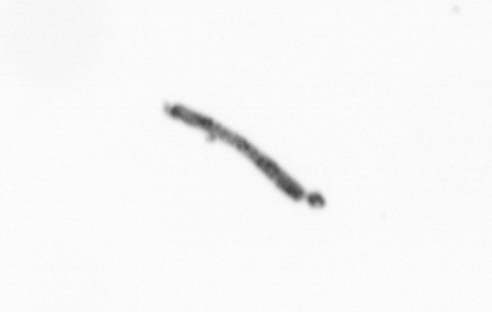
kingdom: Chromista
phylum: Ochrophyta
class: Bacillariophyceae
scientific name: Bacillariophyceae
